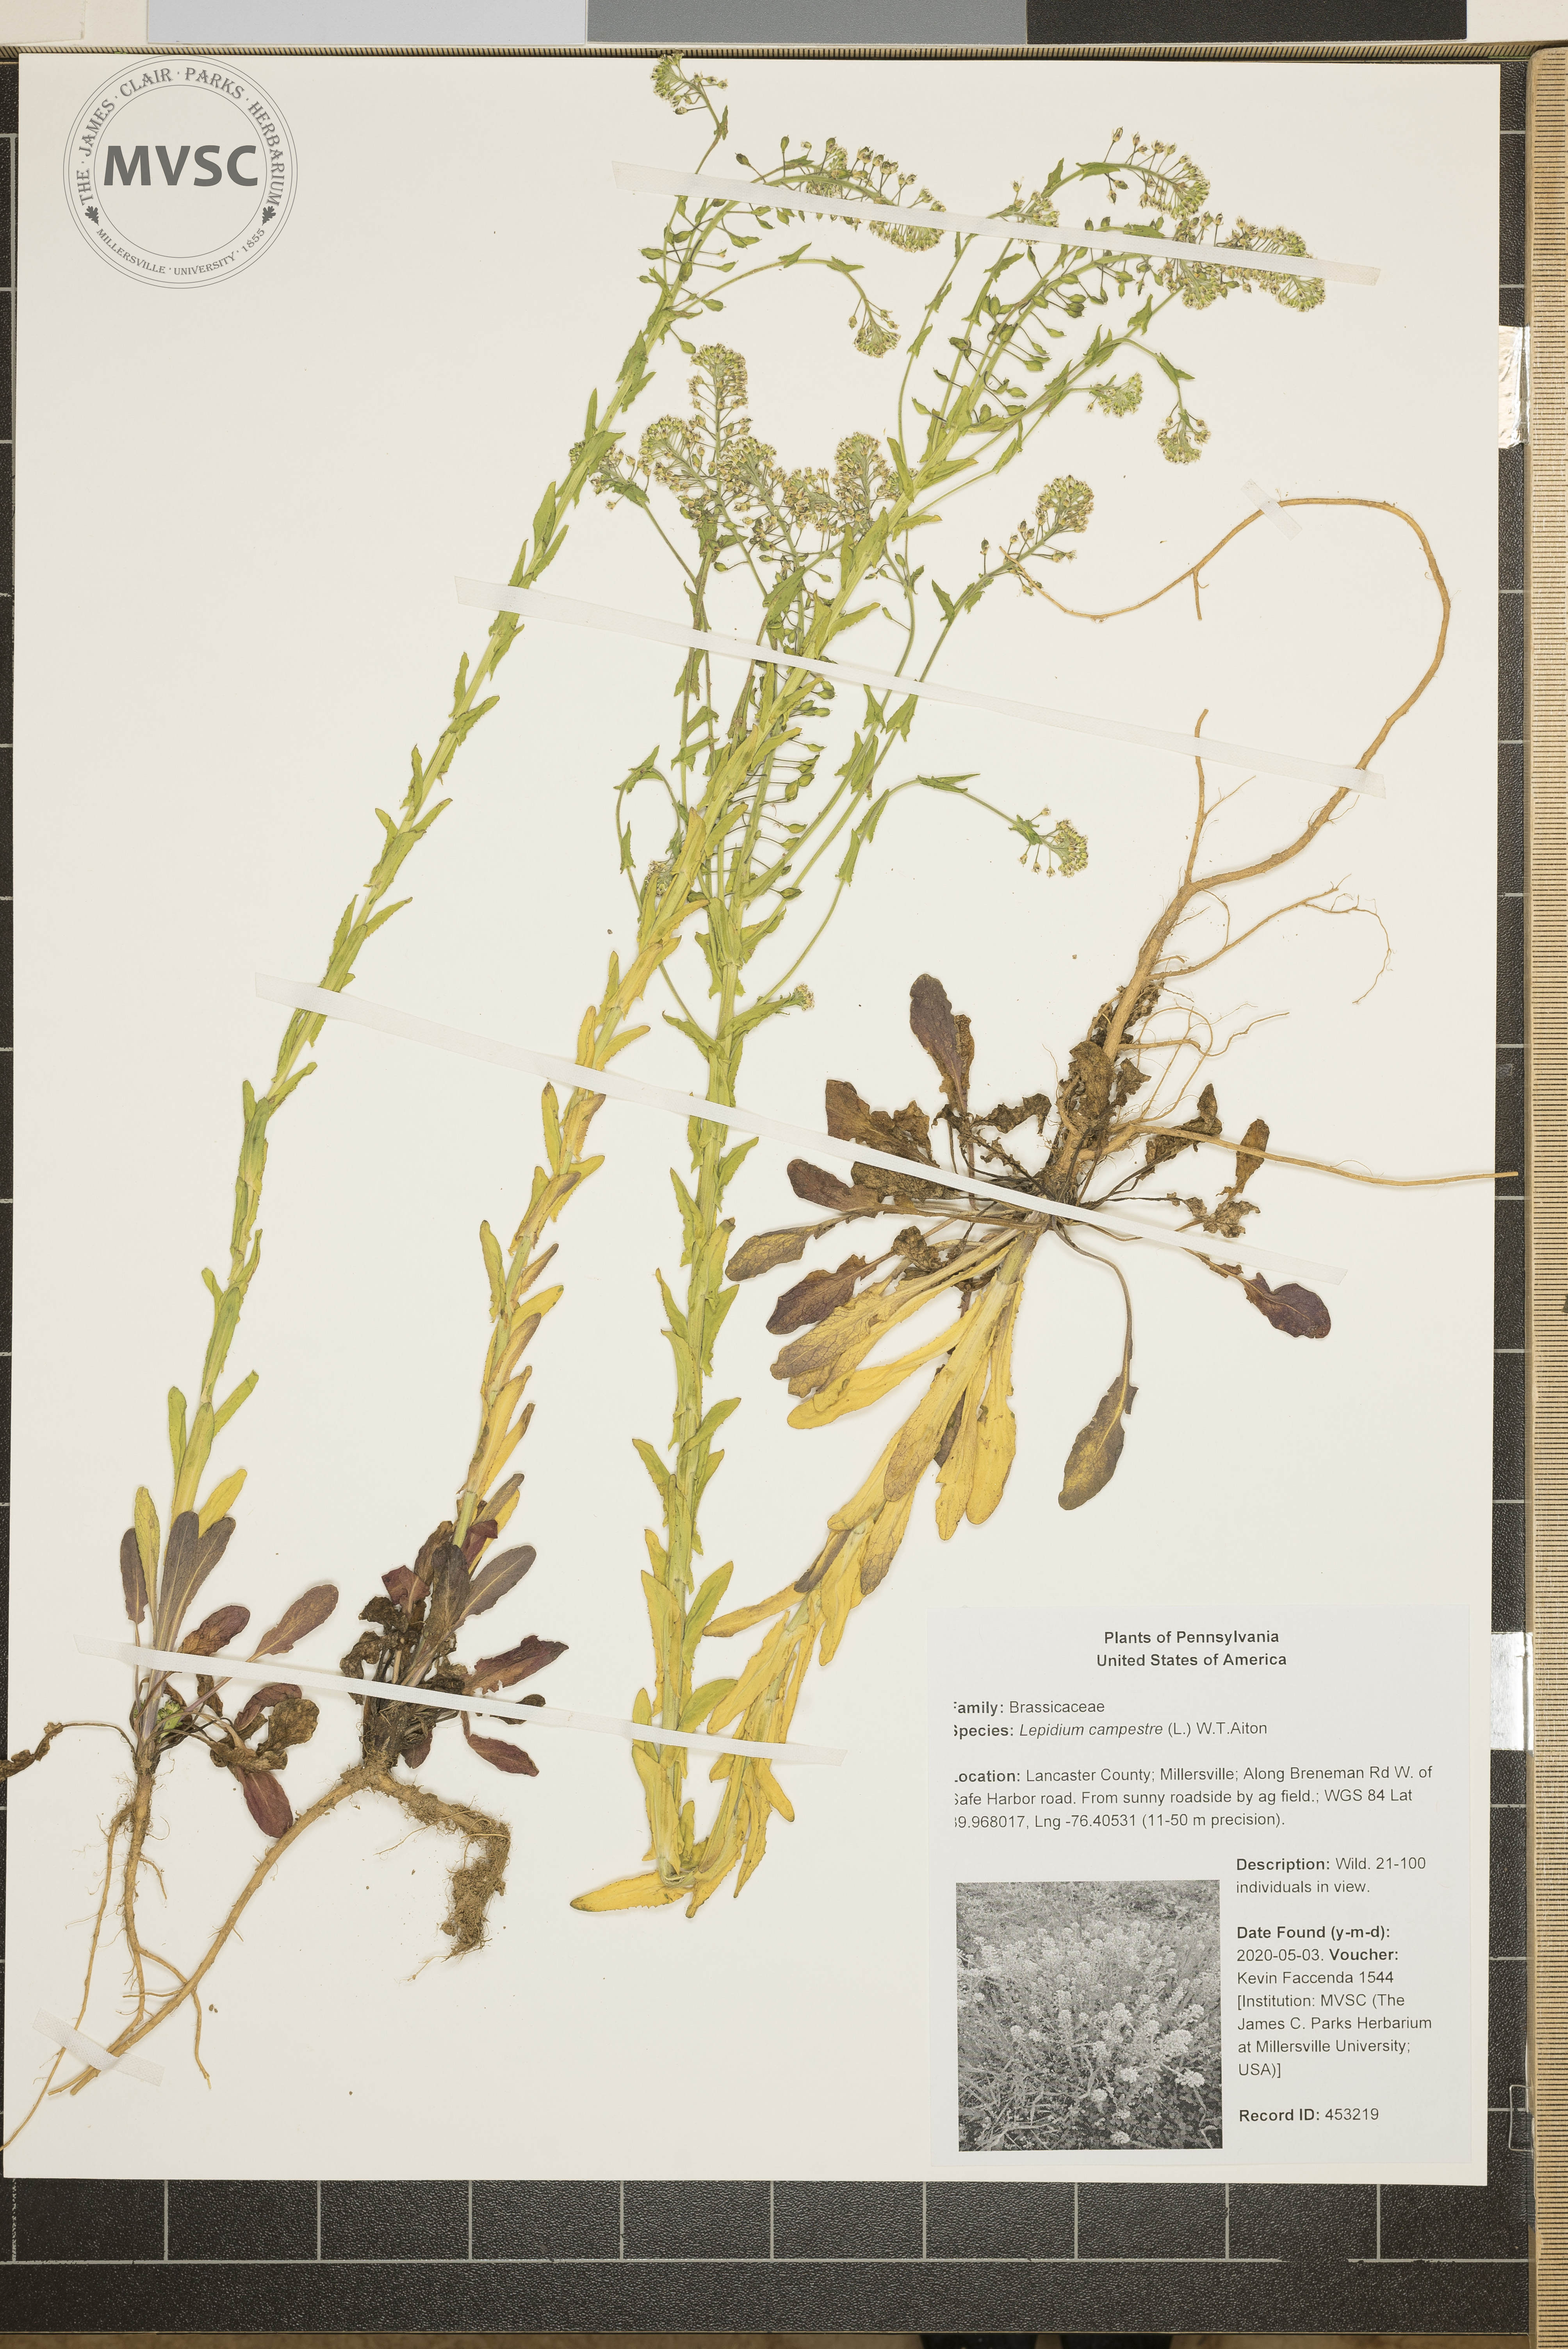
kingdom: Plantae
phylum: Tracheophyta
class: Magnoliopsida
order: Brassicales
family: Brassicaceae
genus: Lepidium
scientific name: Lepidium campestre
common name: Field pepperwort
